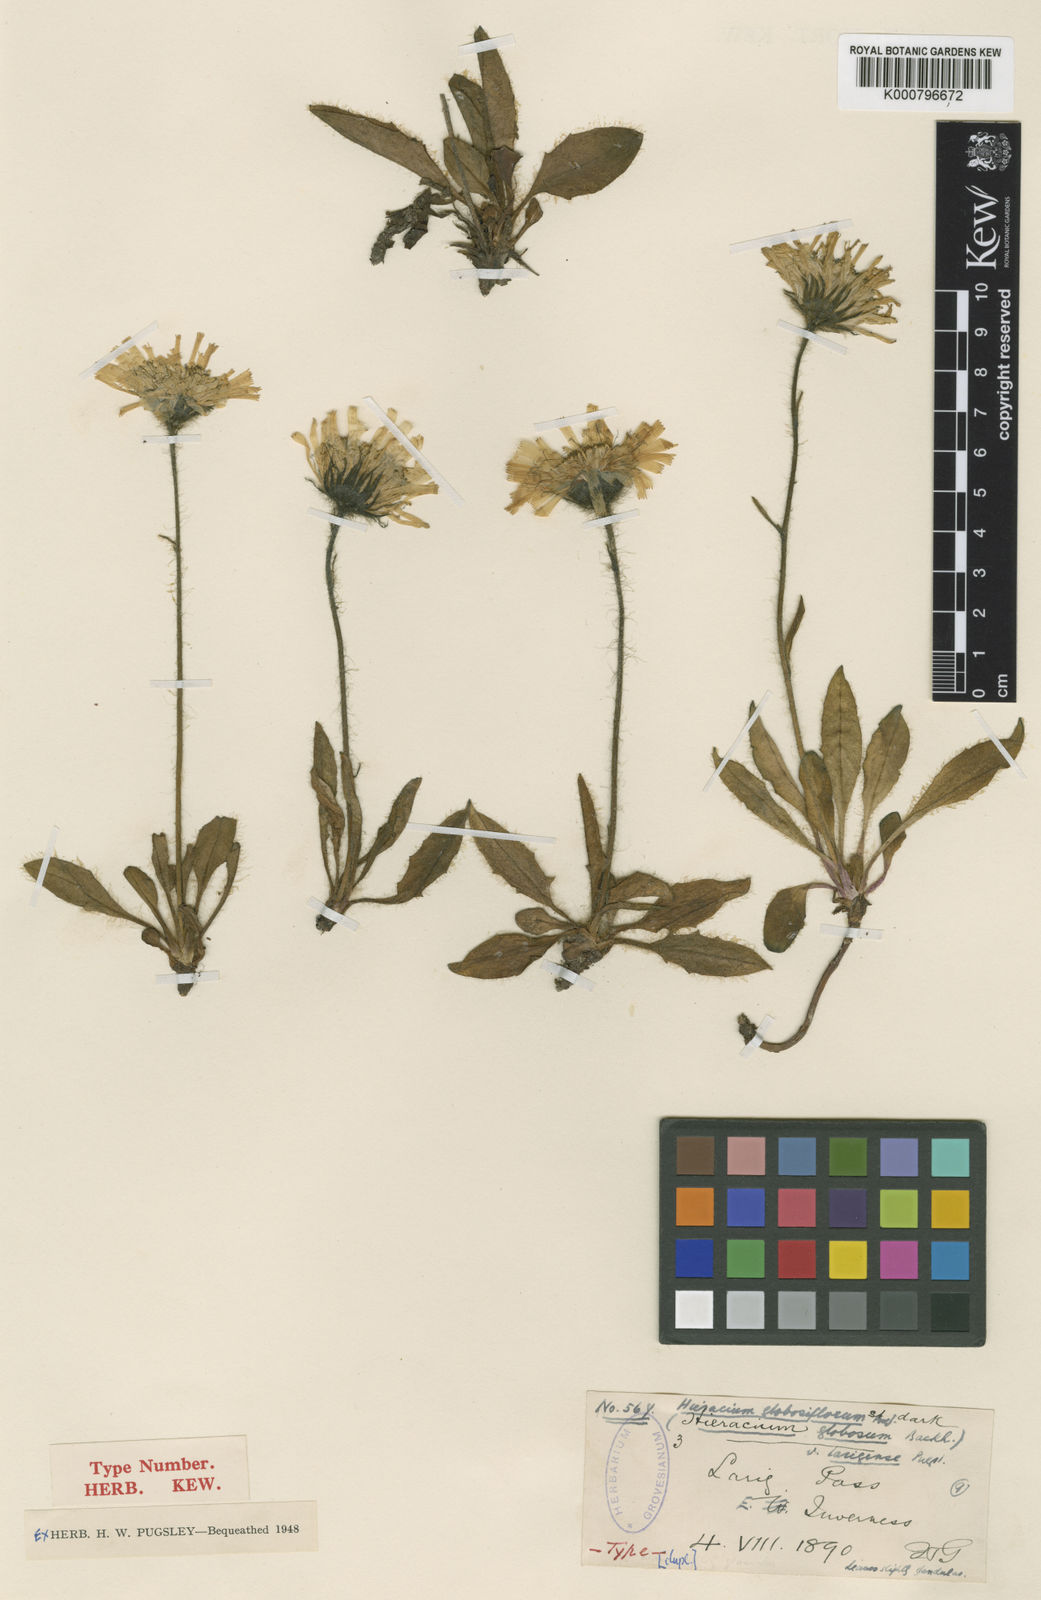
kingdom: Plantae
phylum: Tracheophyta
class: Magnoliopsida
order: Asterales
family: Asteraceae
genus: Hieracium
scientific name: Hieracium globosiflorum
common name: Round-headed hawkweed
